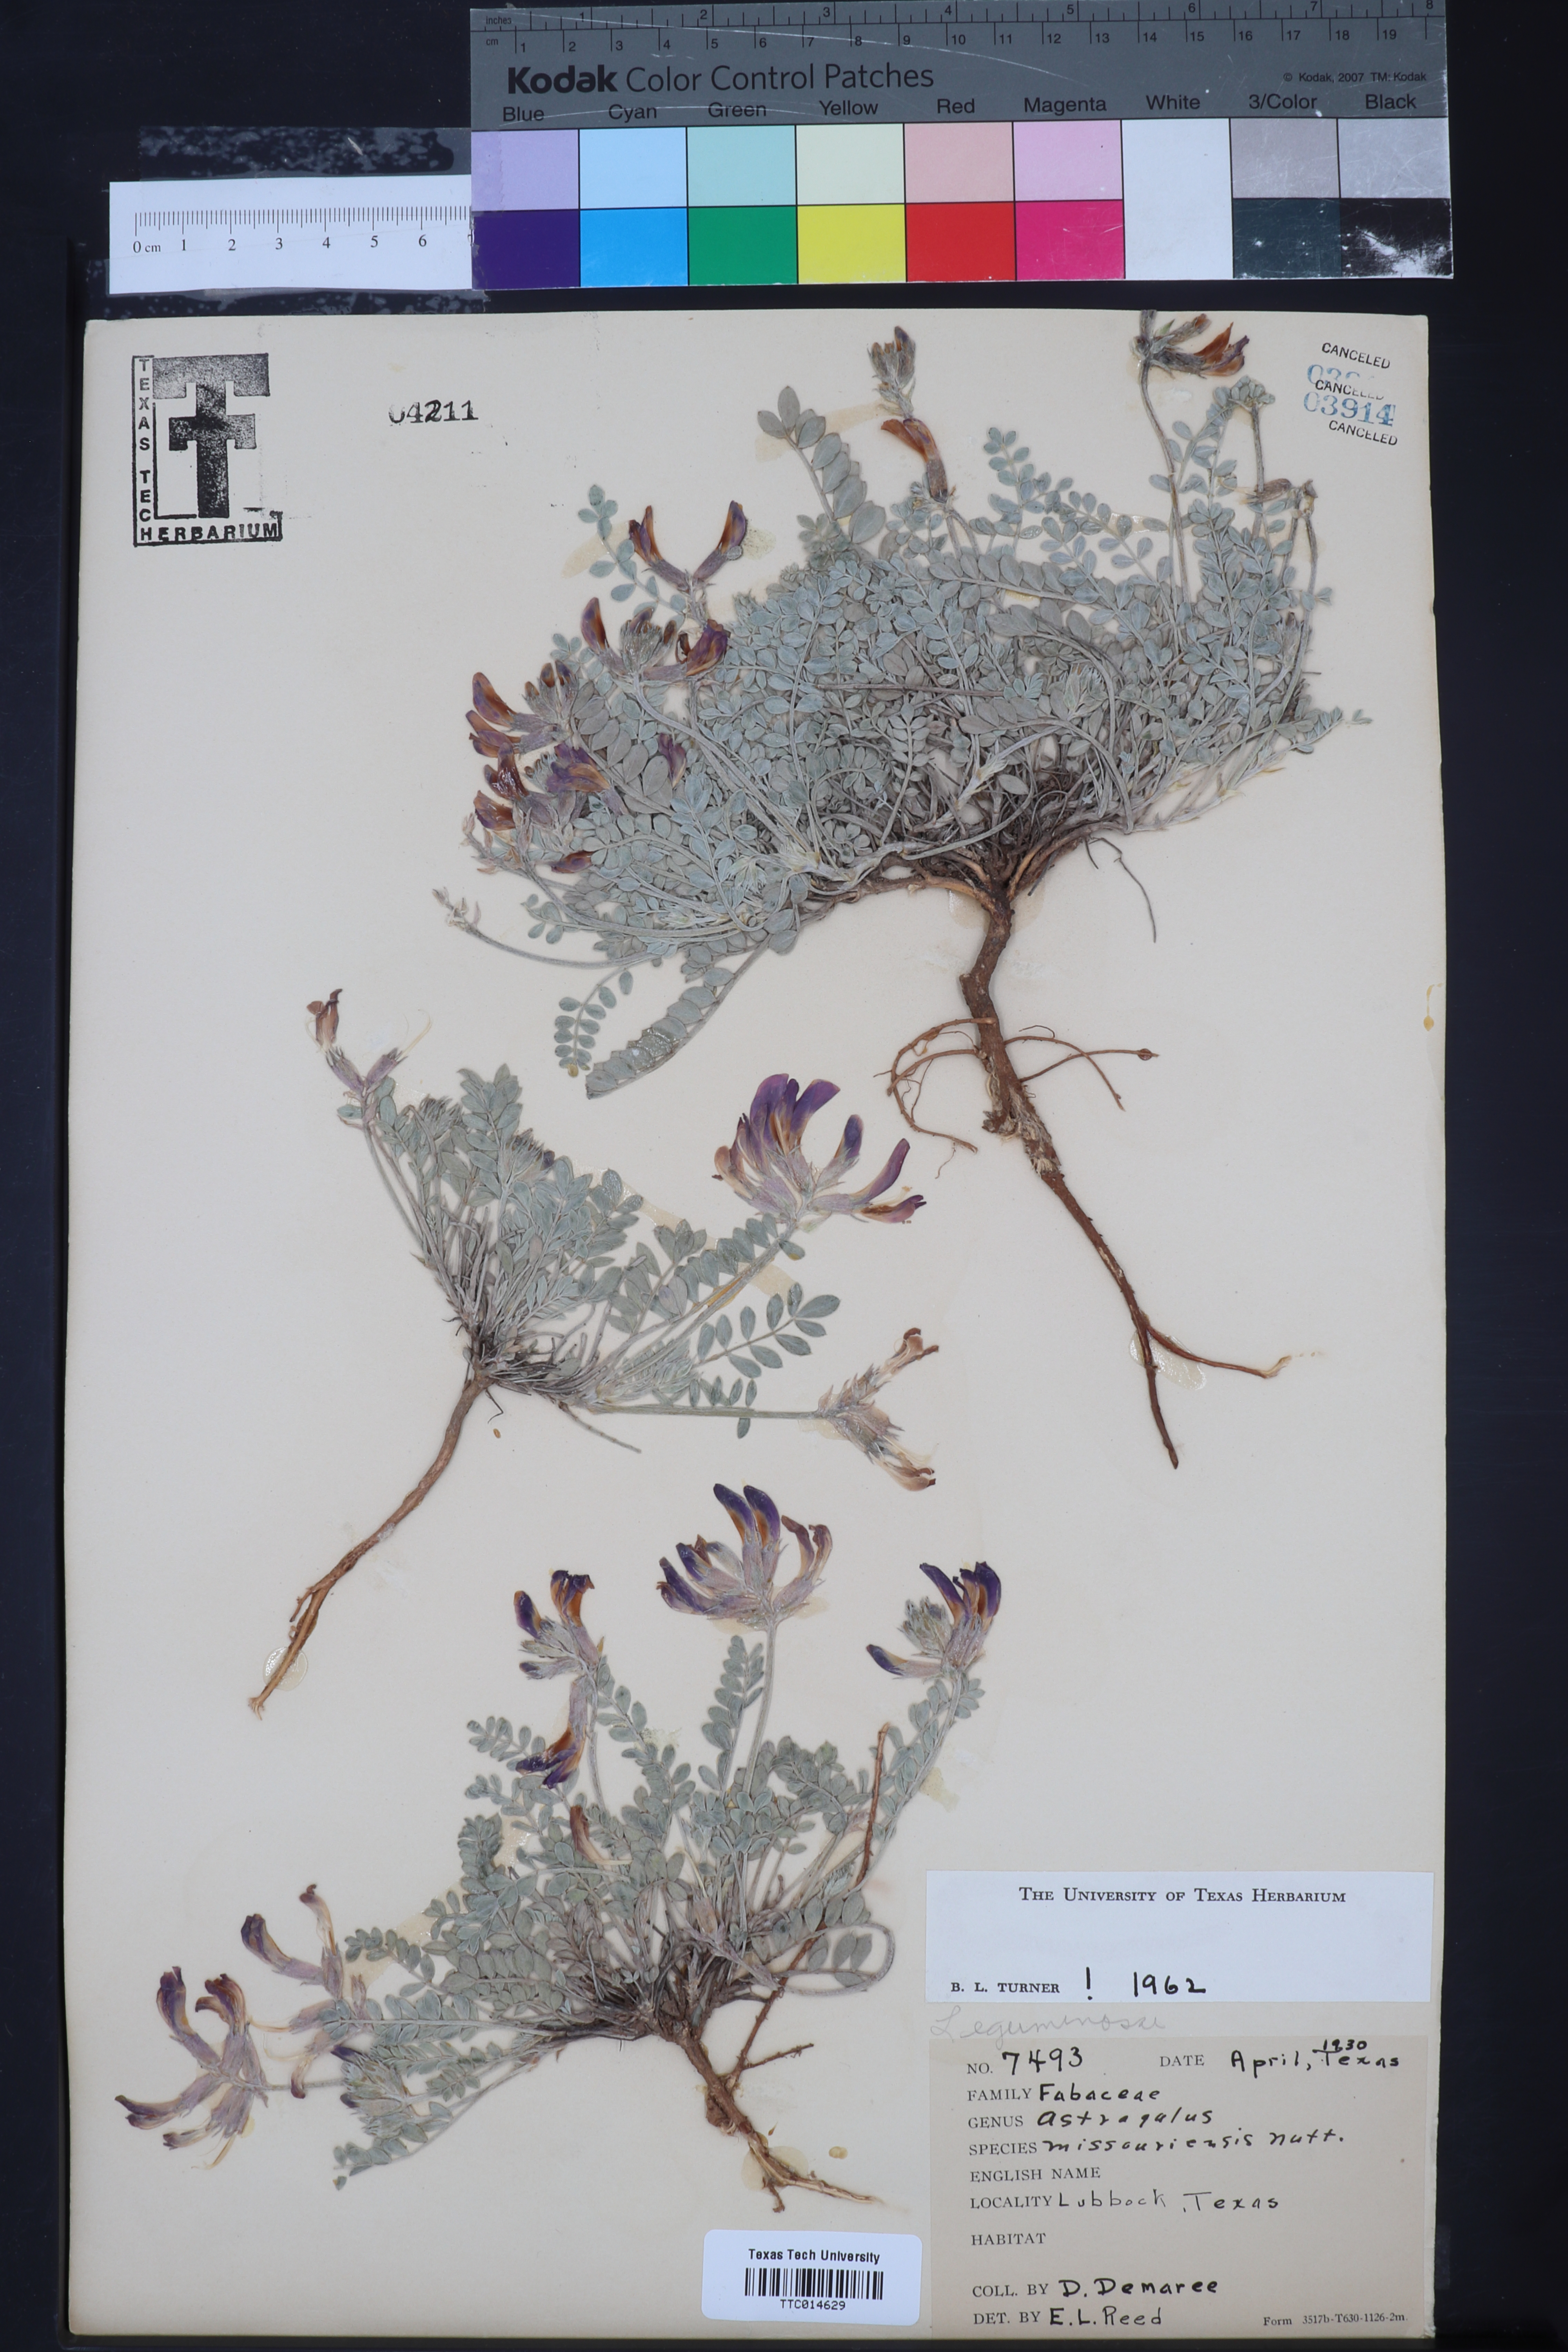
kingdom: Plantae
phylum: Tracheophyta
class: Magnoliopsida
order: Fabales
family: Fabaceae
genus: Astragalus
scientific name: Astragalus missouriensis
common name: Missouri milk-vetch
